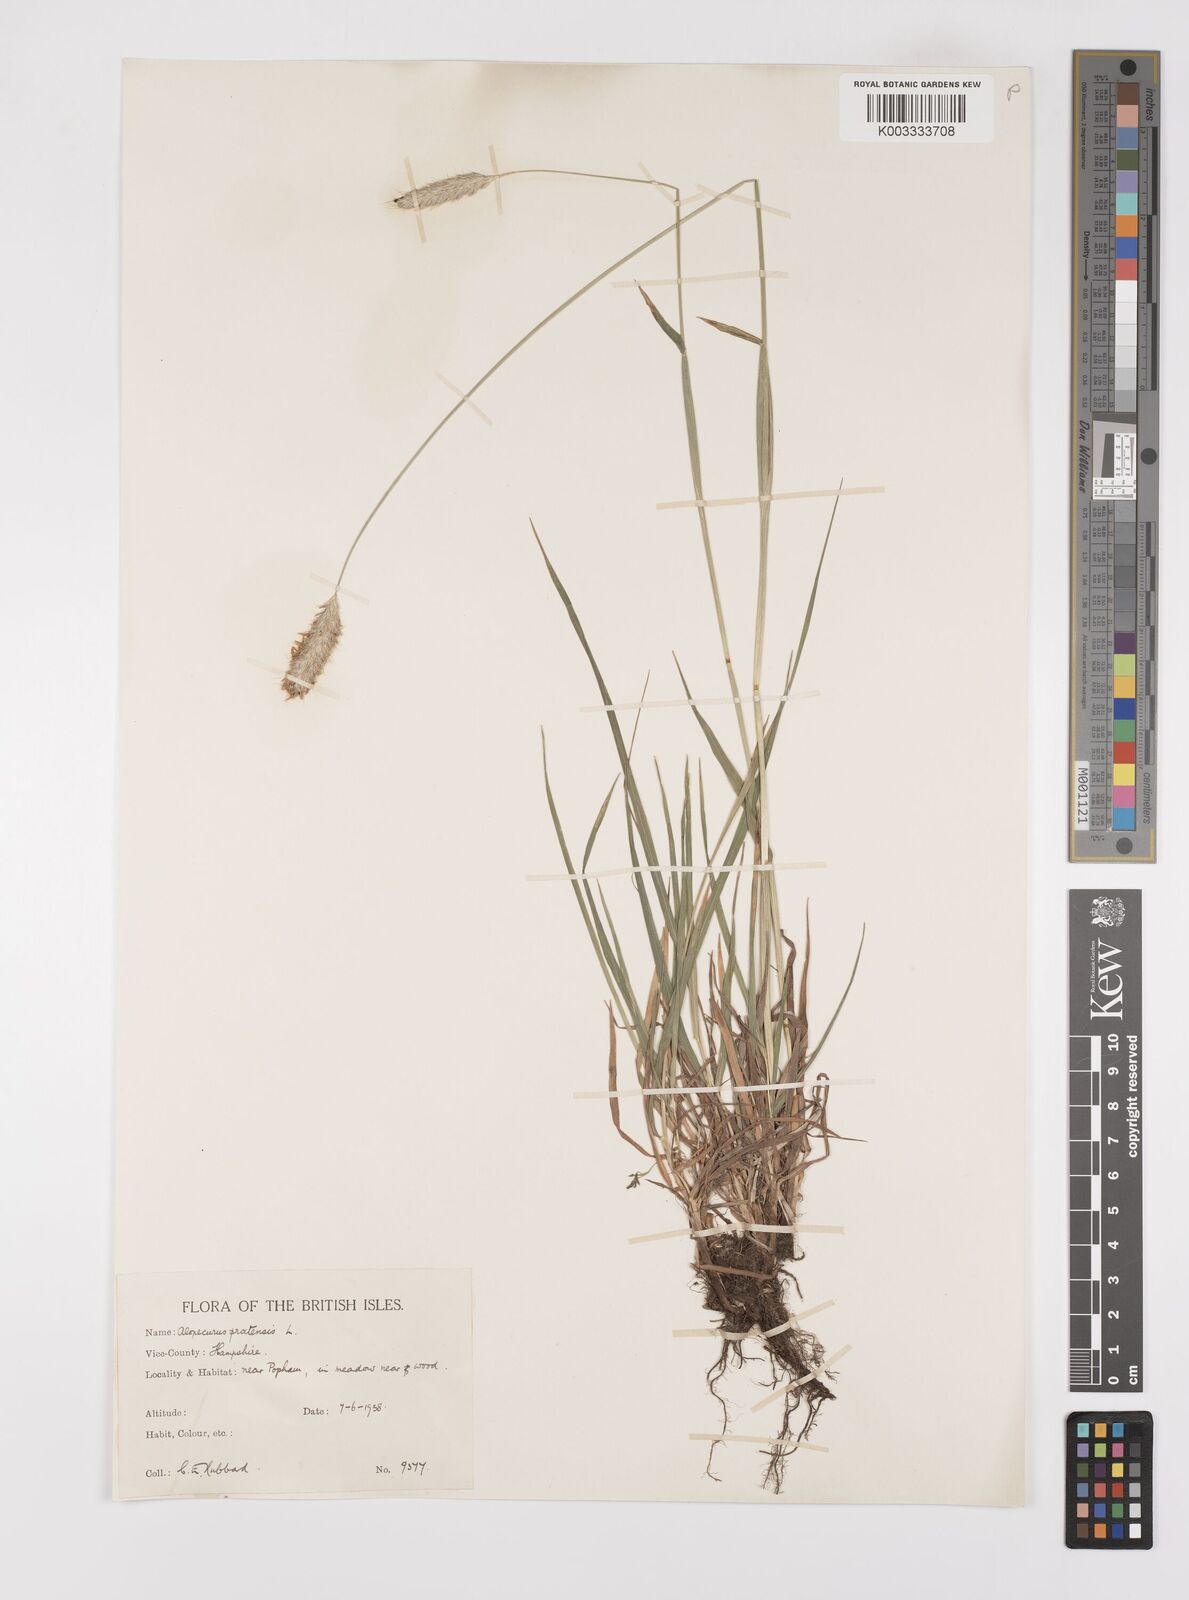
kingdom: Plantae
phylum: Tracheophyta
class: Liliopsida
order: Poales
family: Poaceae
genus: Alopecurus
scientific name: Alopecurus pratensis
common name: Meadow foxtail
